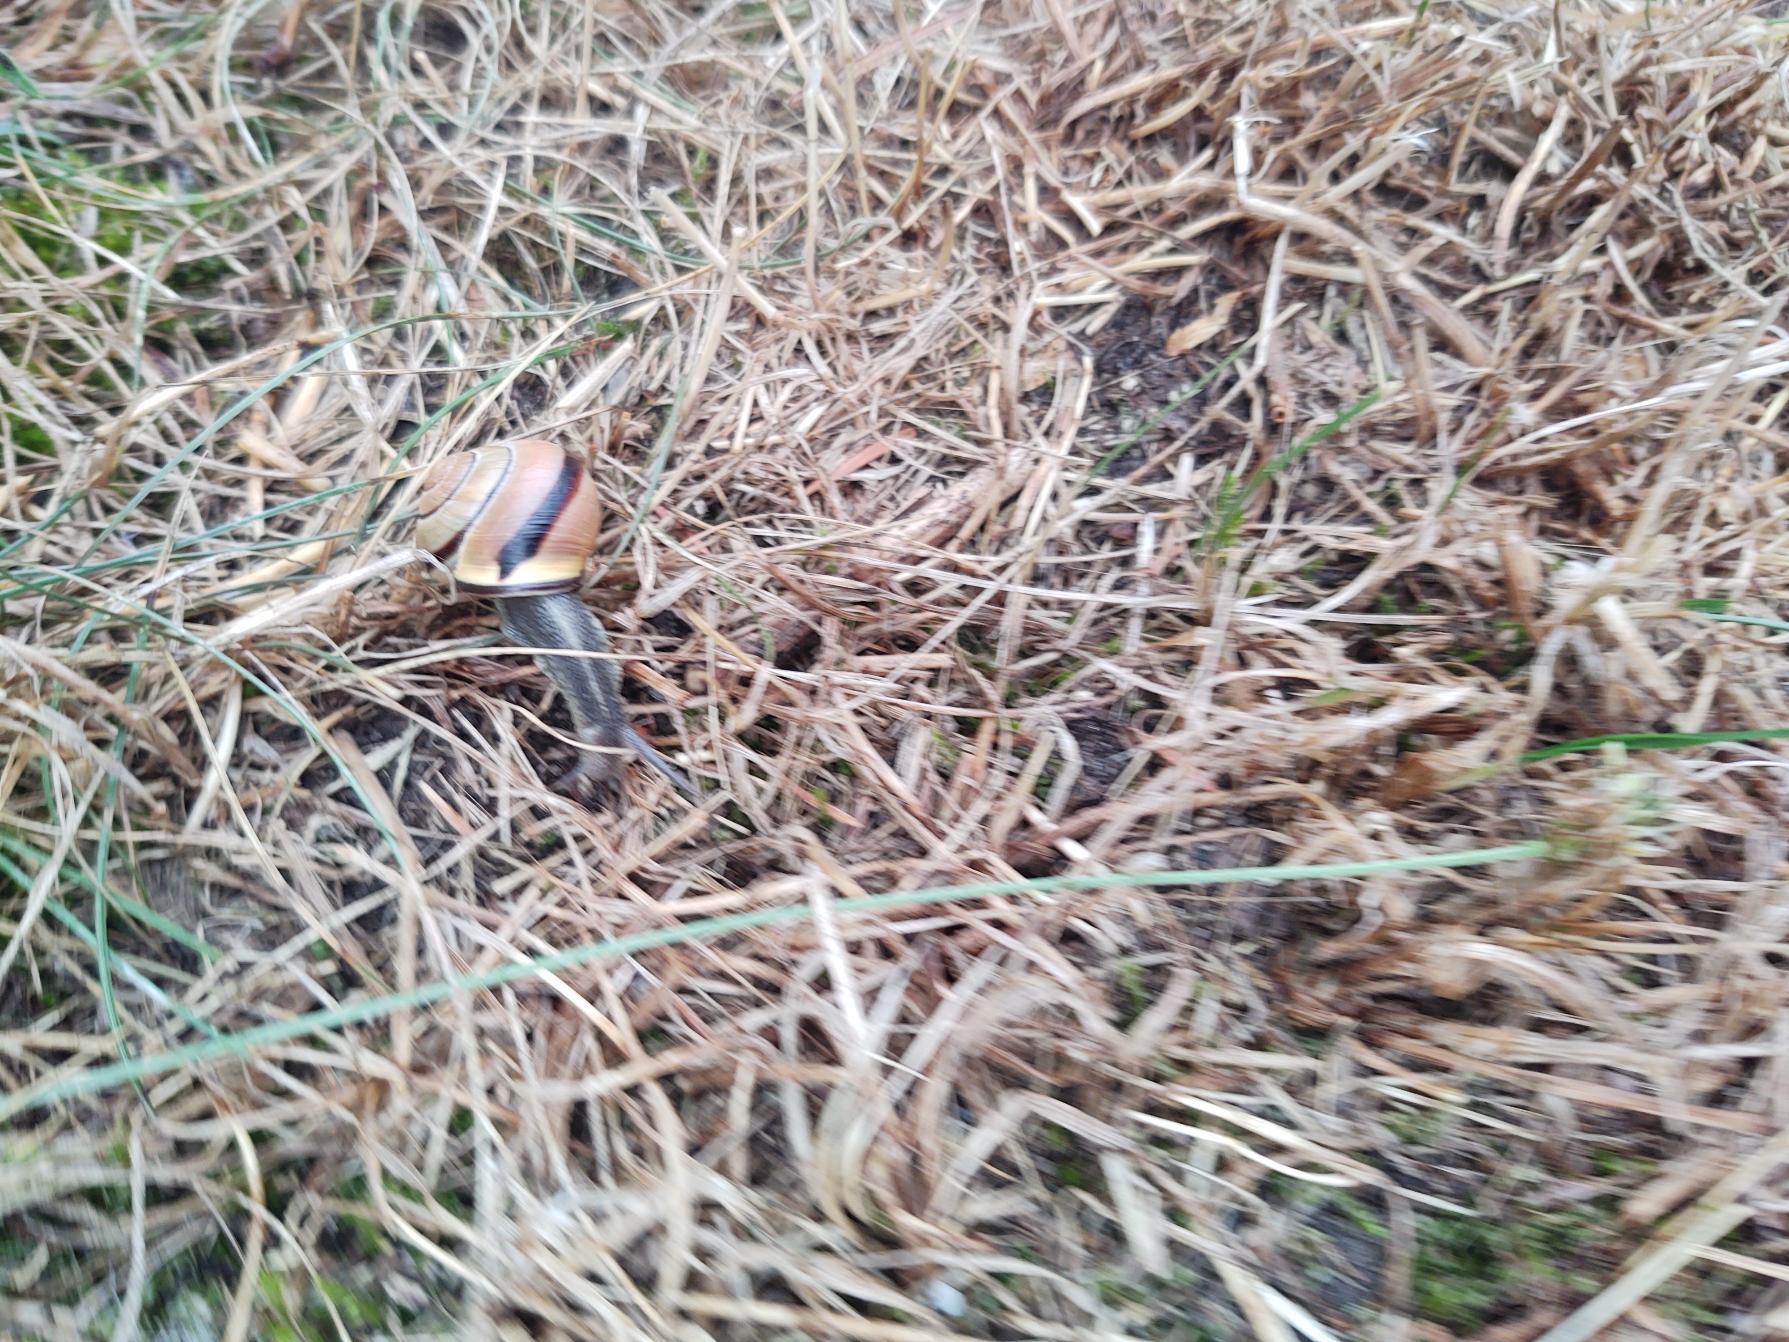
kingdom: Animalia
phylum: Mollusca
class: Gastropoda
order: Stylommatophora
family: Helicidae
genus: Cepaea
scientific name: Cepaea nemoralis
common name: Lundsnegl
